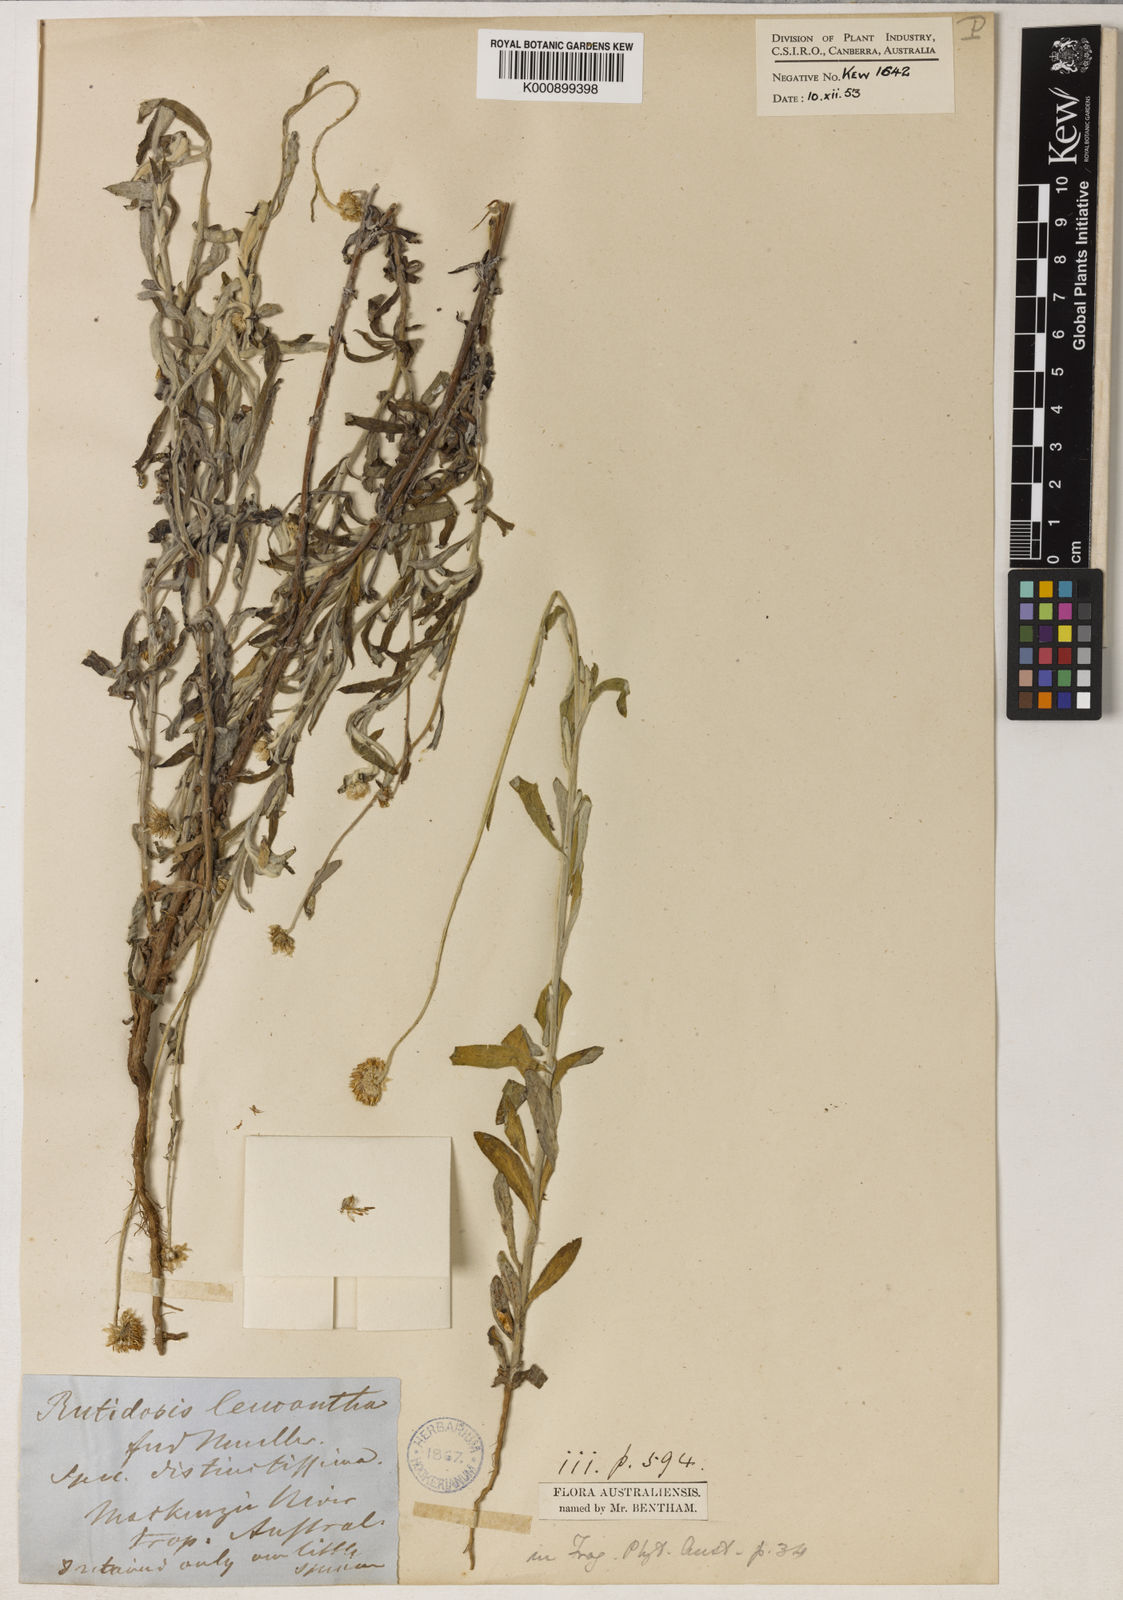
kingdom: Plantae
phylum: Tracheophyta
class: Magnoliopsida
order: Asterales
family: Asteraceae
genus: Rutidosis
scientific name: Rutidosis leucantha
